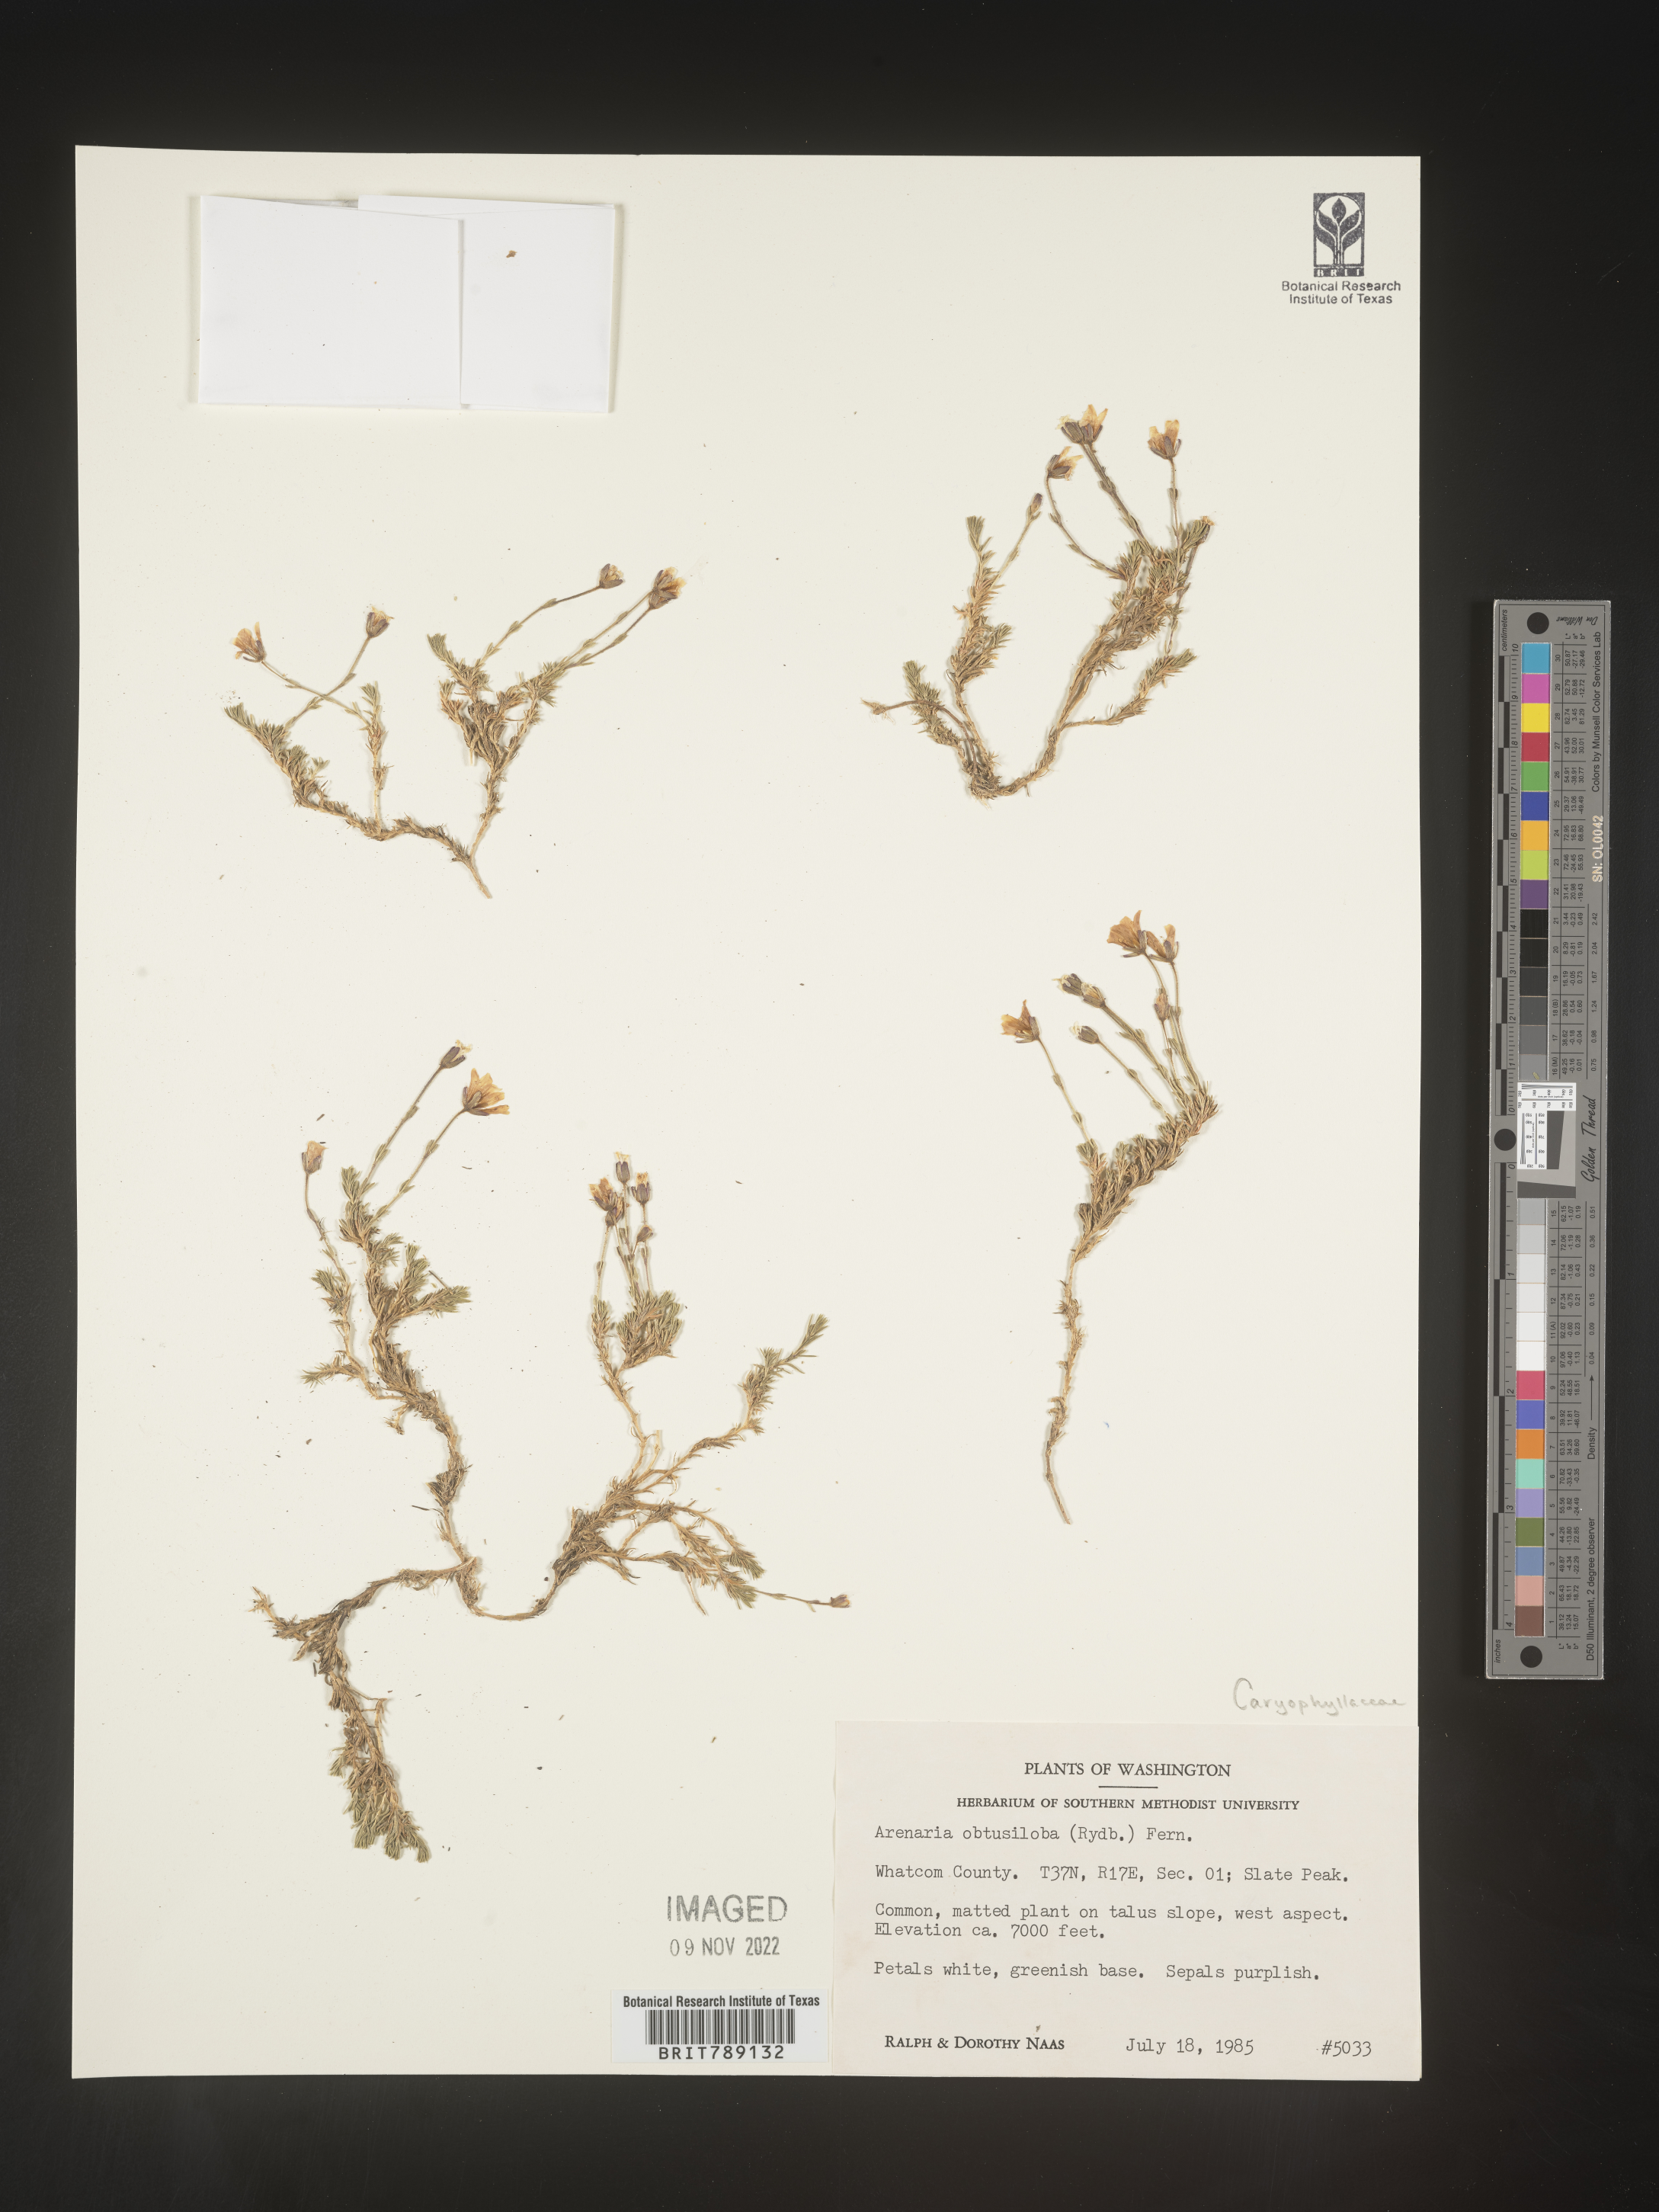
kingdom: Plantae
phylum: Tracheophyta
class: Magnoliopsida
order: Caryophyllales
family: Caryophyllaceae
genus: Arenaria
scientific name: Arenaria
